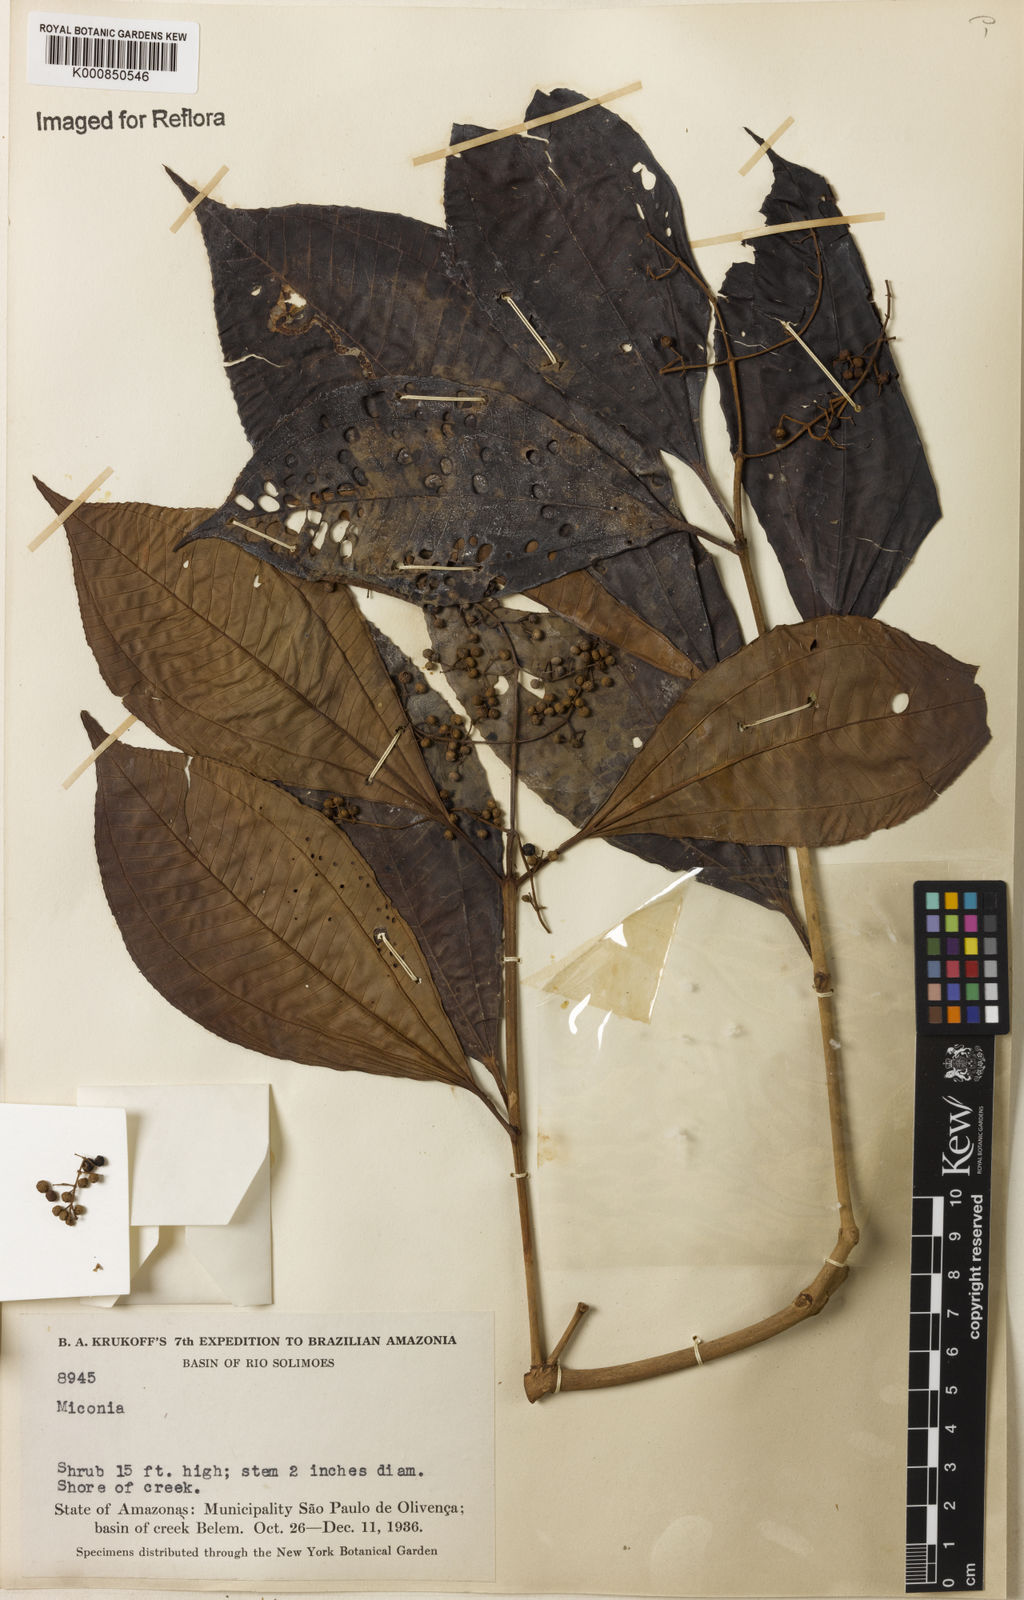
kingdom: Plantae
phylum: Tracheophyta
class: Magnoliopsida
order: Myrtales
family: Melastomataceae
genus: Miconia
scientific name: Miconia
